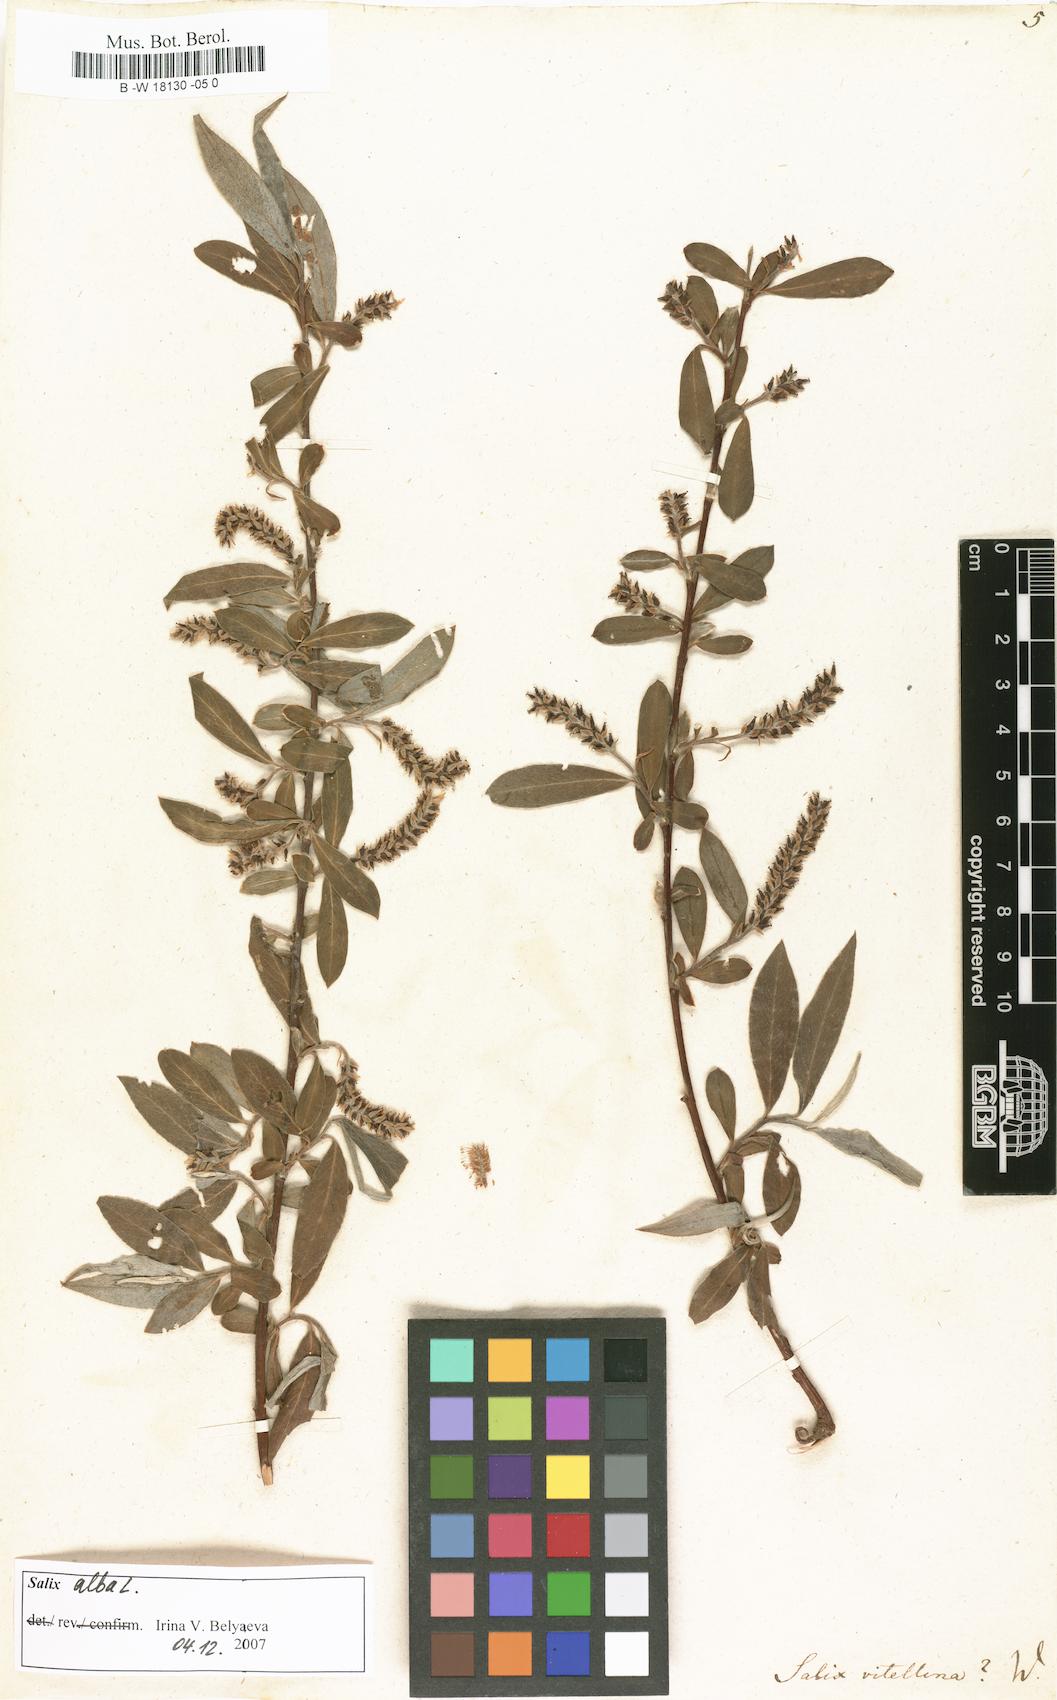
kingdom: Plantae
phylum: Tracheophyta
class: Magnoliopsida
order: Malpighiales
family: Salicaceae
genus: Salix
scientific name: Salix alba
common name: White willow
